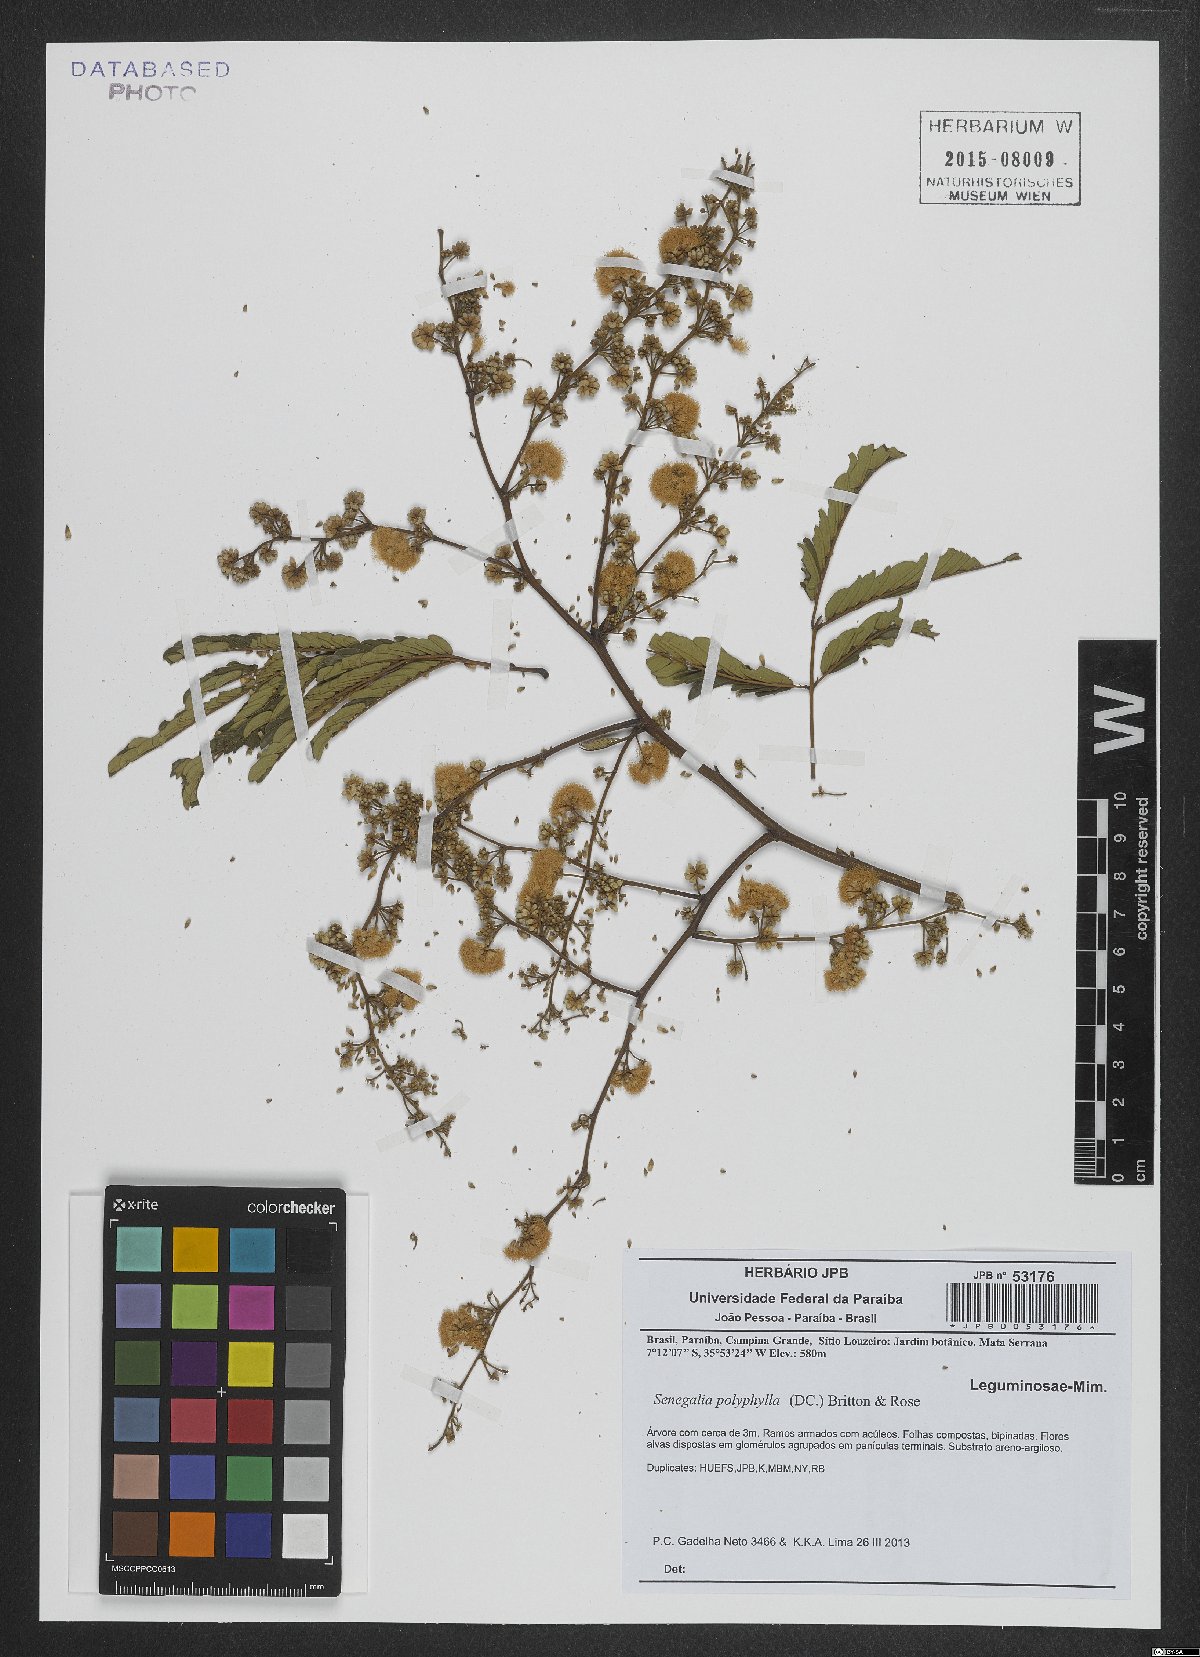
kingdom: Plantae
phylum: Tracheophyta
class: Magnoliopsida
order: Fabales
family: Fabaceae
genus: Senegalia
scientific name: Senegalia polyphylla
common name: White-tamarind
